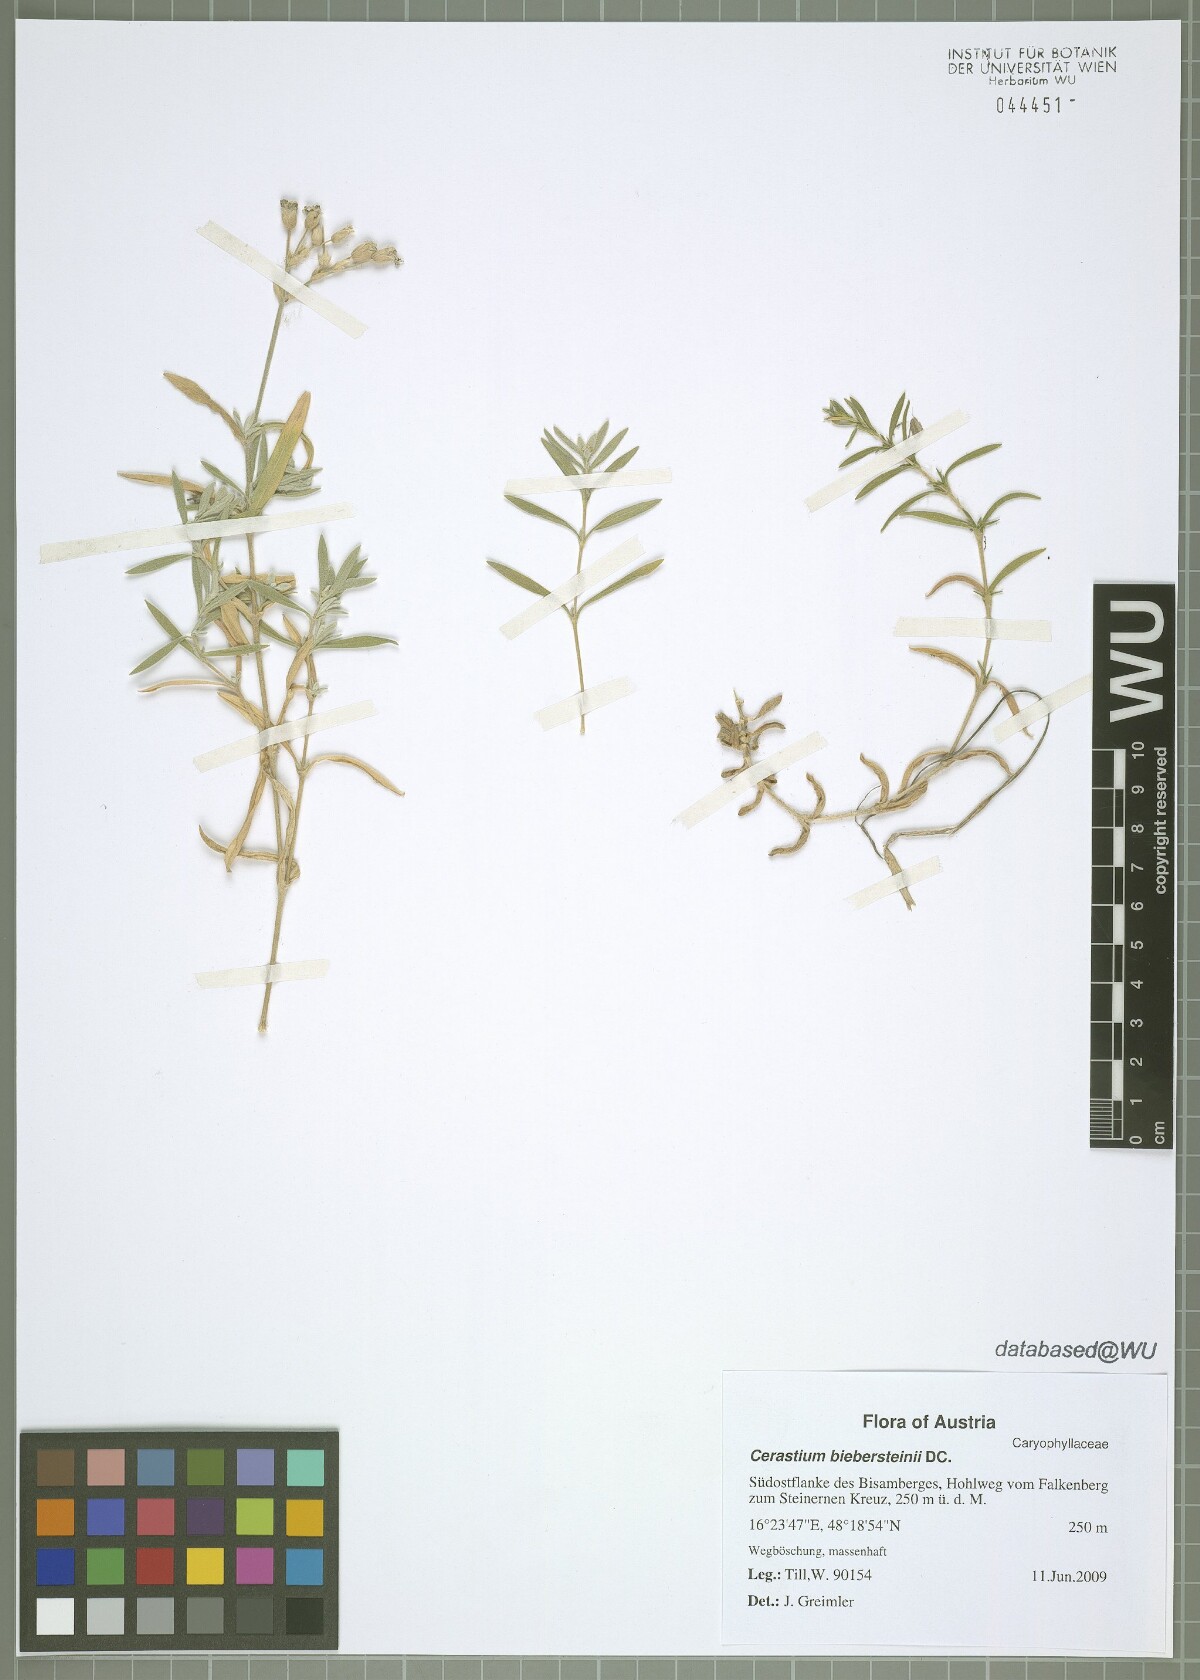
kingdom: Plantae
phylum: Tracheophyta
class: Magnoliopsida
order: Caryophyllales
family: Caryophyllaceae
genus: Cerastium
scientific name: Cerastium biebersteinii
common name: Snow-in-summer
